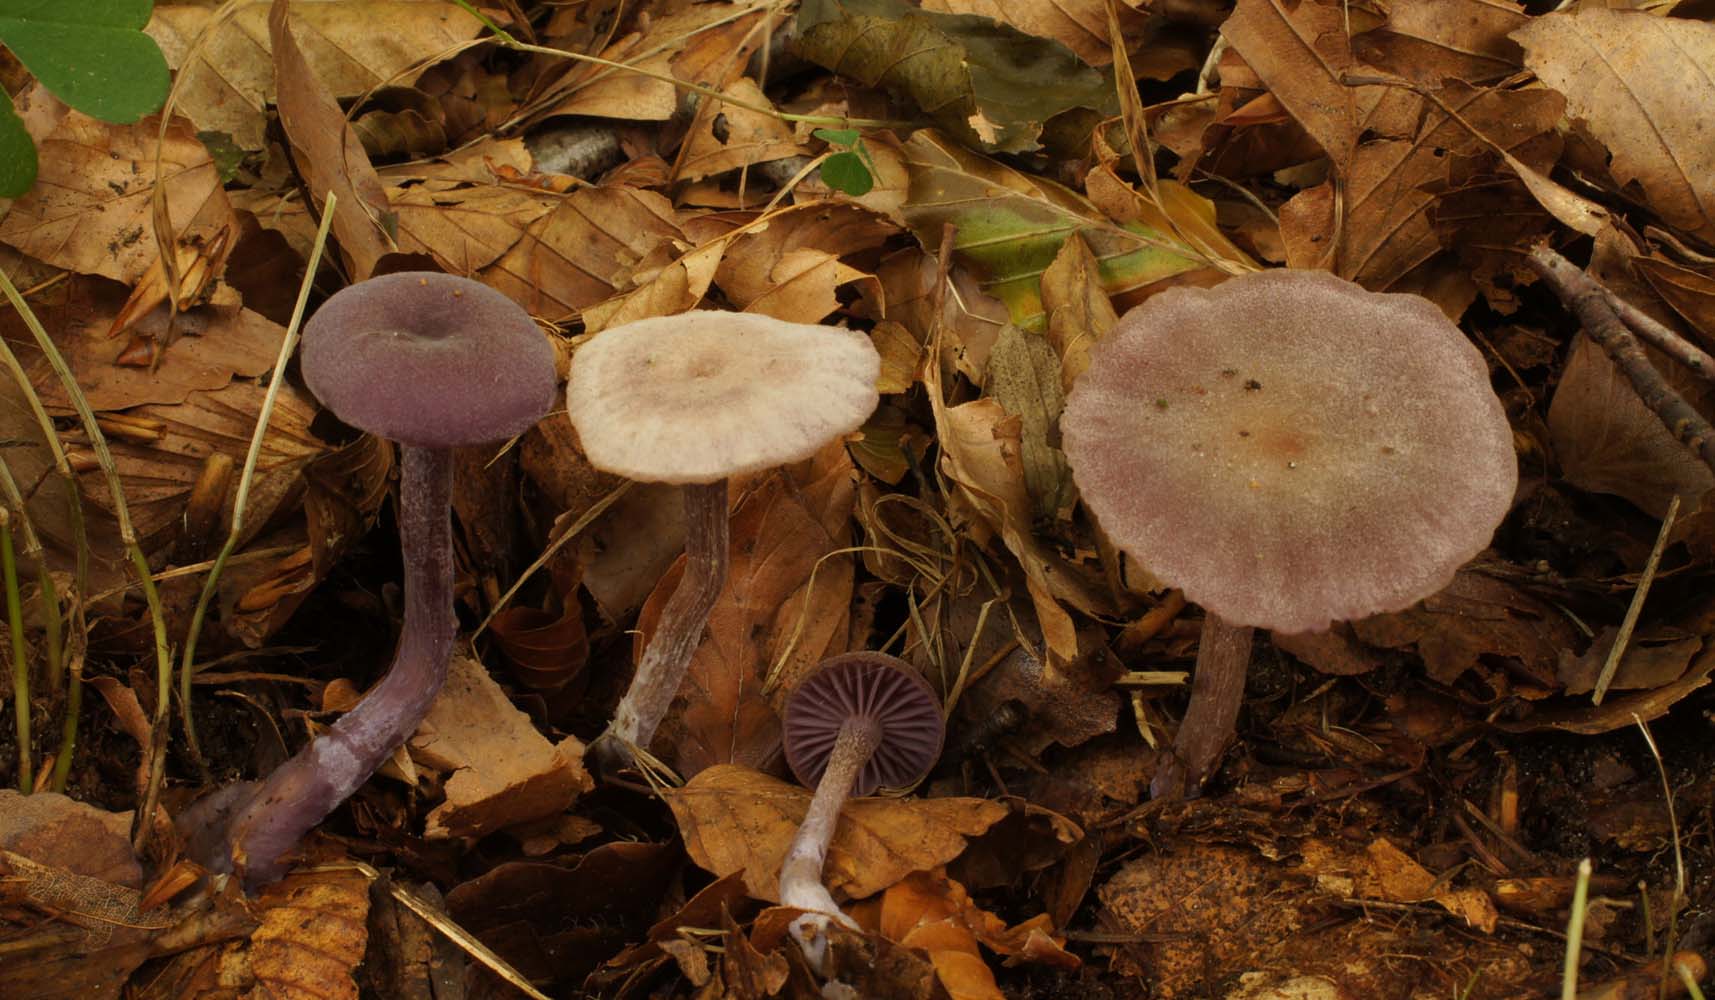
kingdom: Fungi
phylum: Basidiomycota
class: Agaricomycetes
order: Agaricales
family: Hydnangiaceae
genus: Laccaria
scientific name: Laccaria amethystina
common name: violet ametysthat
